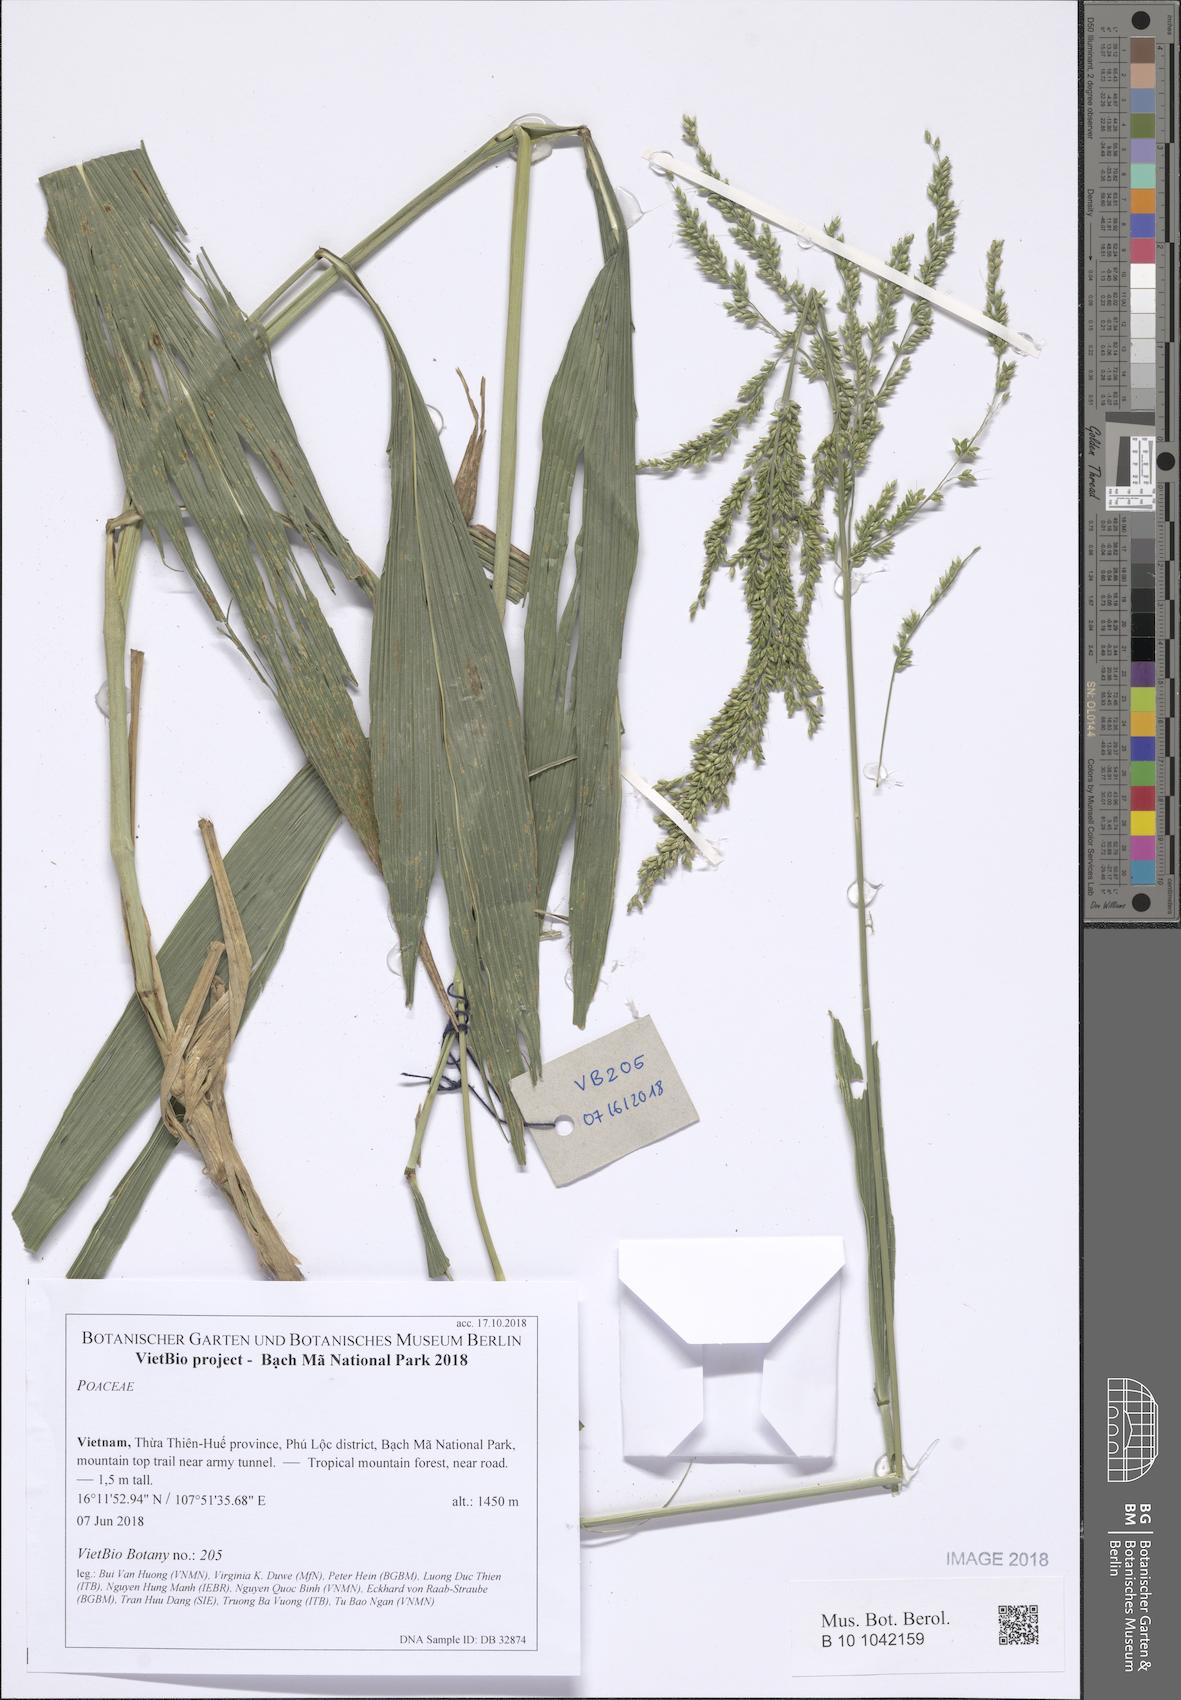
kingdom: Plantae
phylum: Tracheophyta
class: Liliopsida
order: Poales
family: Poaceae
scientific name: Poaceae
